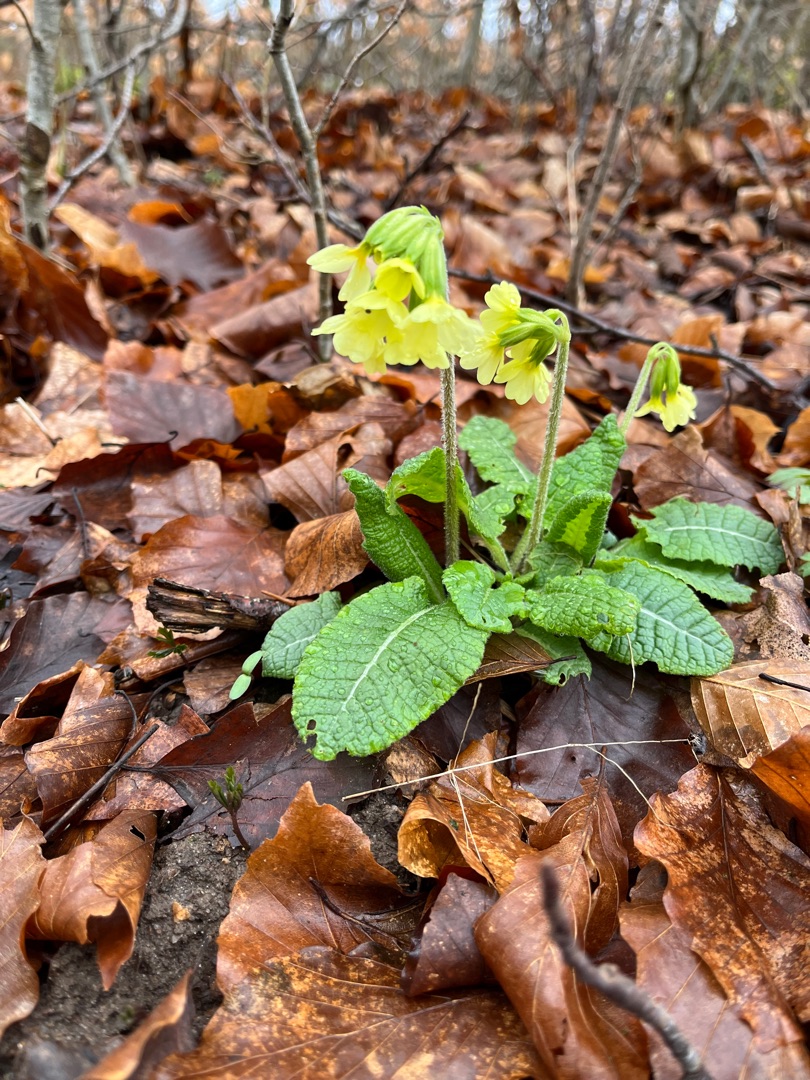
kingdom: Plantae
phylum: Tracheophyta
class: Magnoliopsida
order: Ericales
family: Primulaceae
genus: Primula
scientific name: Primula elatior
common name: Fladkravet kodriver
